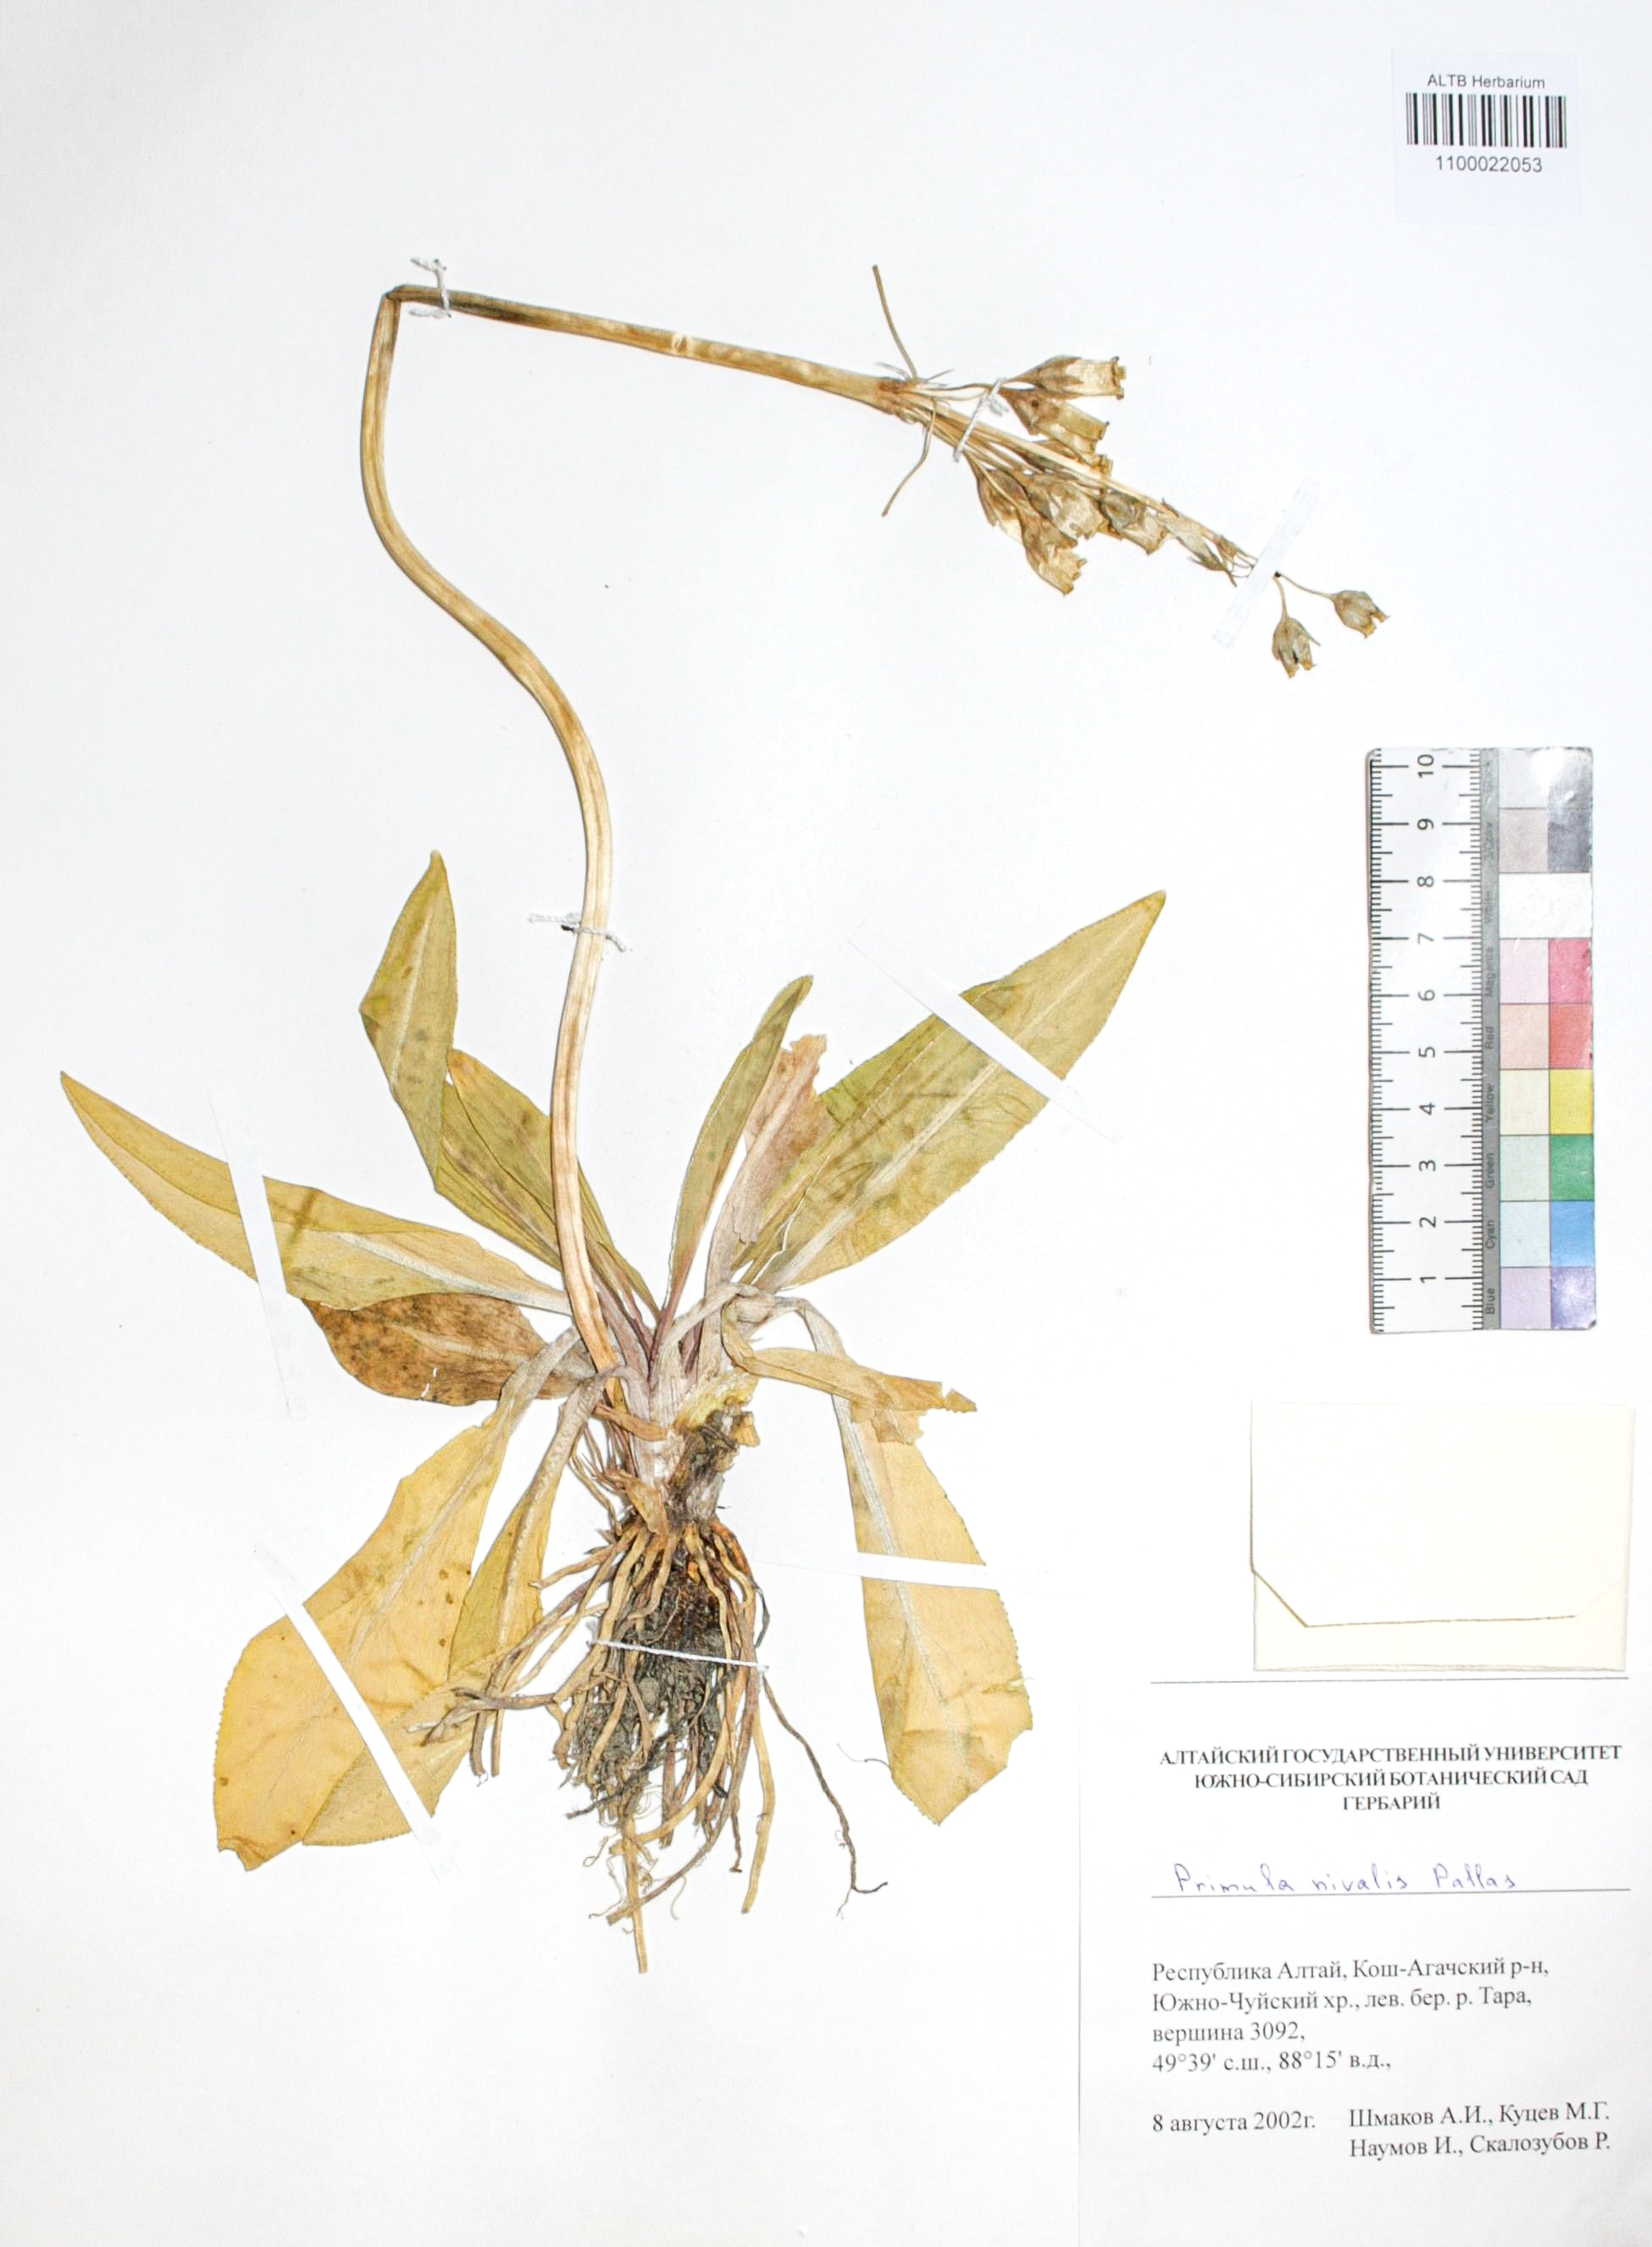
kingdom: Plantae
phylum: Tracheophyta
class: Magnoliopsida
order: Ericales
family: Primulaceae
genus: Primula
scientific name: Primula nivalis
